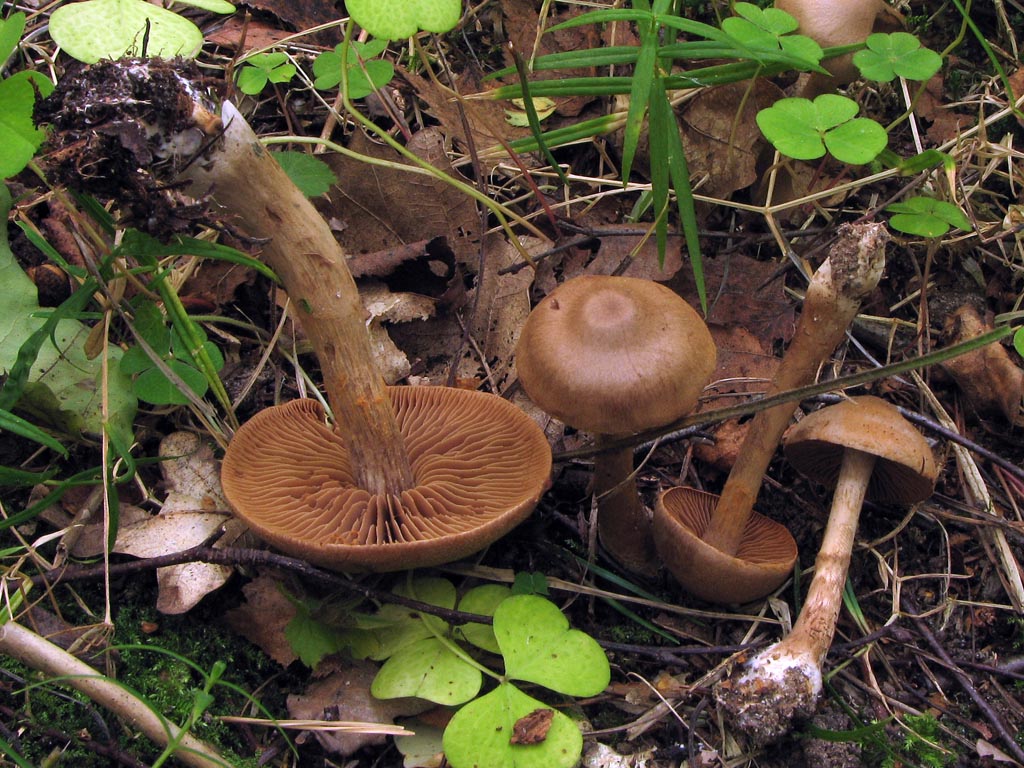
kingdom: Fungi
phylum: Basidiomycota
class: Agaricomycetes
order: Agaricales
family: Cortinariaceae
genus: Cortinarius
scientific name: Cortinarius raphanoides
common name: ræddike-slørhat
